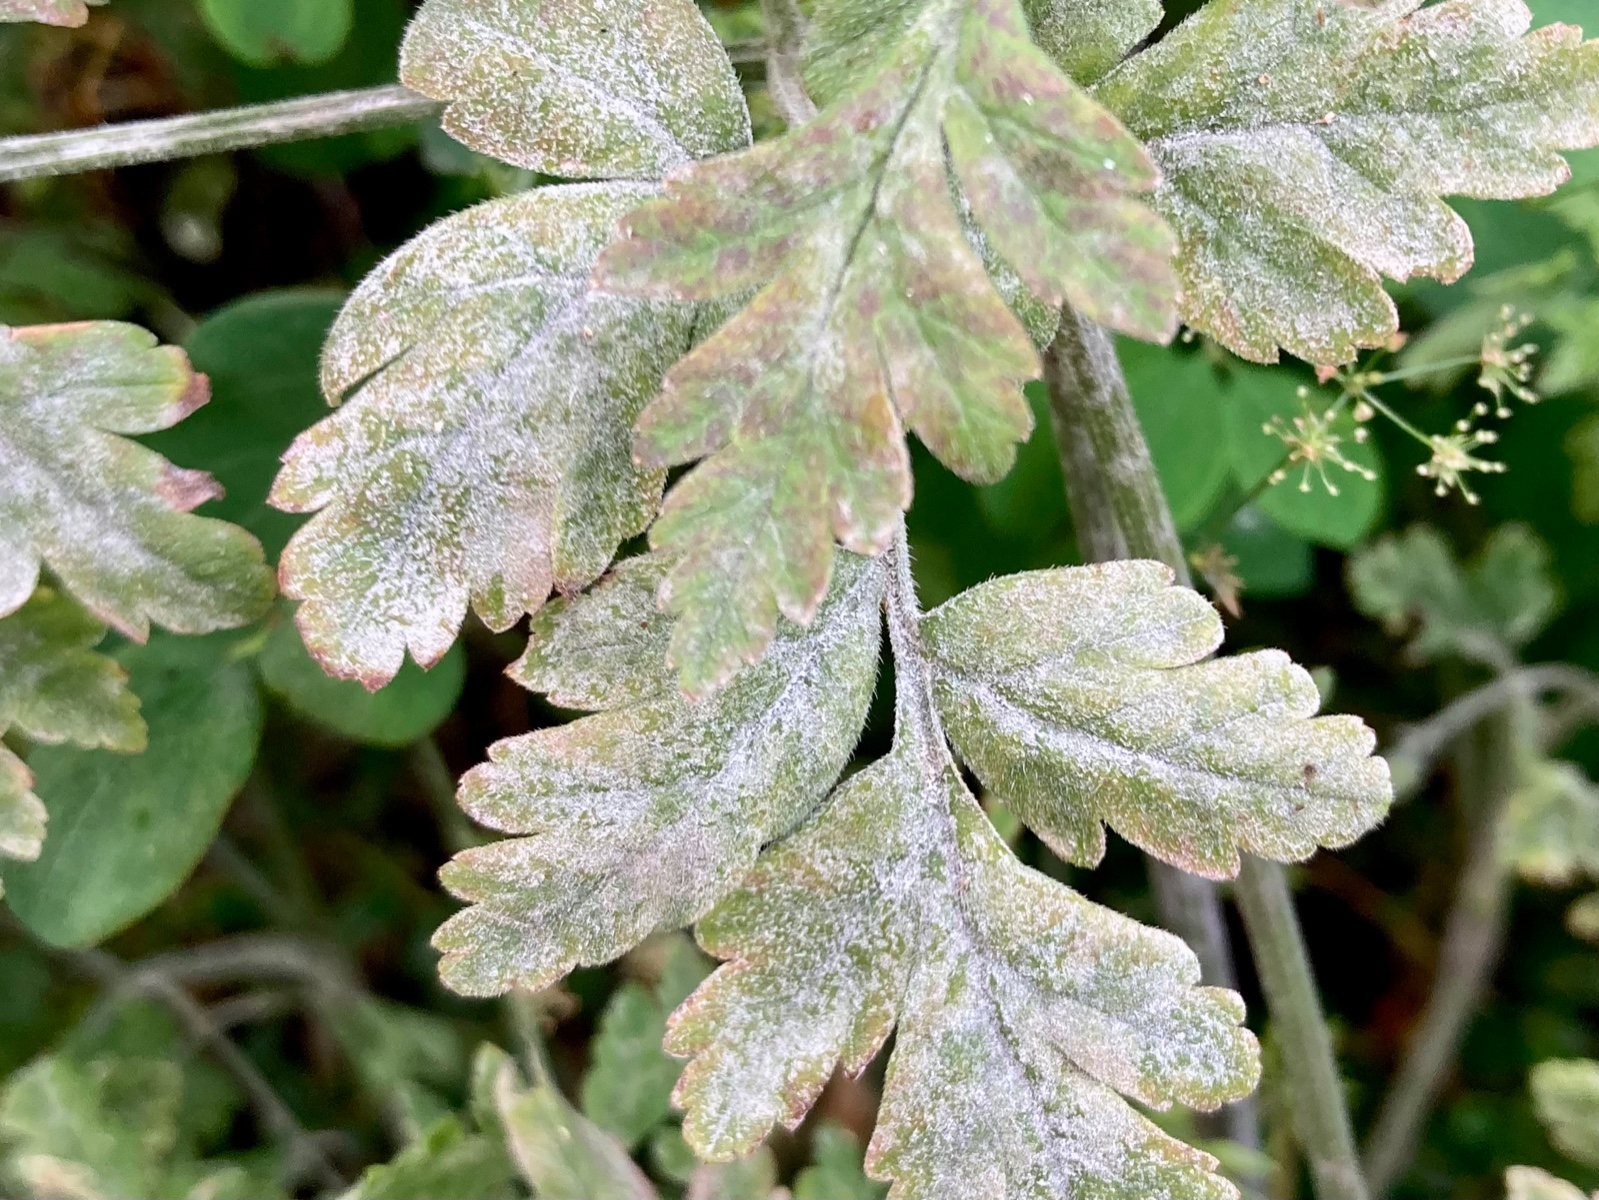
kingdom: Fungi
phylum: Ascomycota
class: Leotiomycetes
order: Helotiales
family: Erysiphaceae
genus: Erysiphe
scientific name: Erysiphe heraclei
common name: skærmplante-meldug
